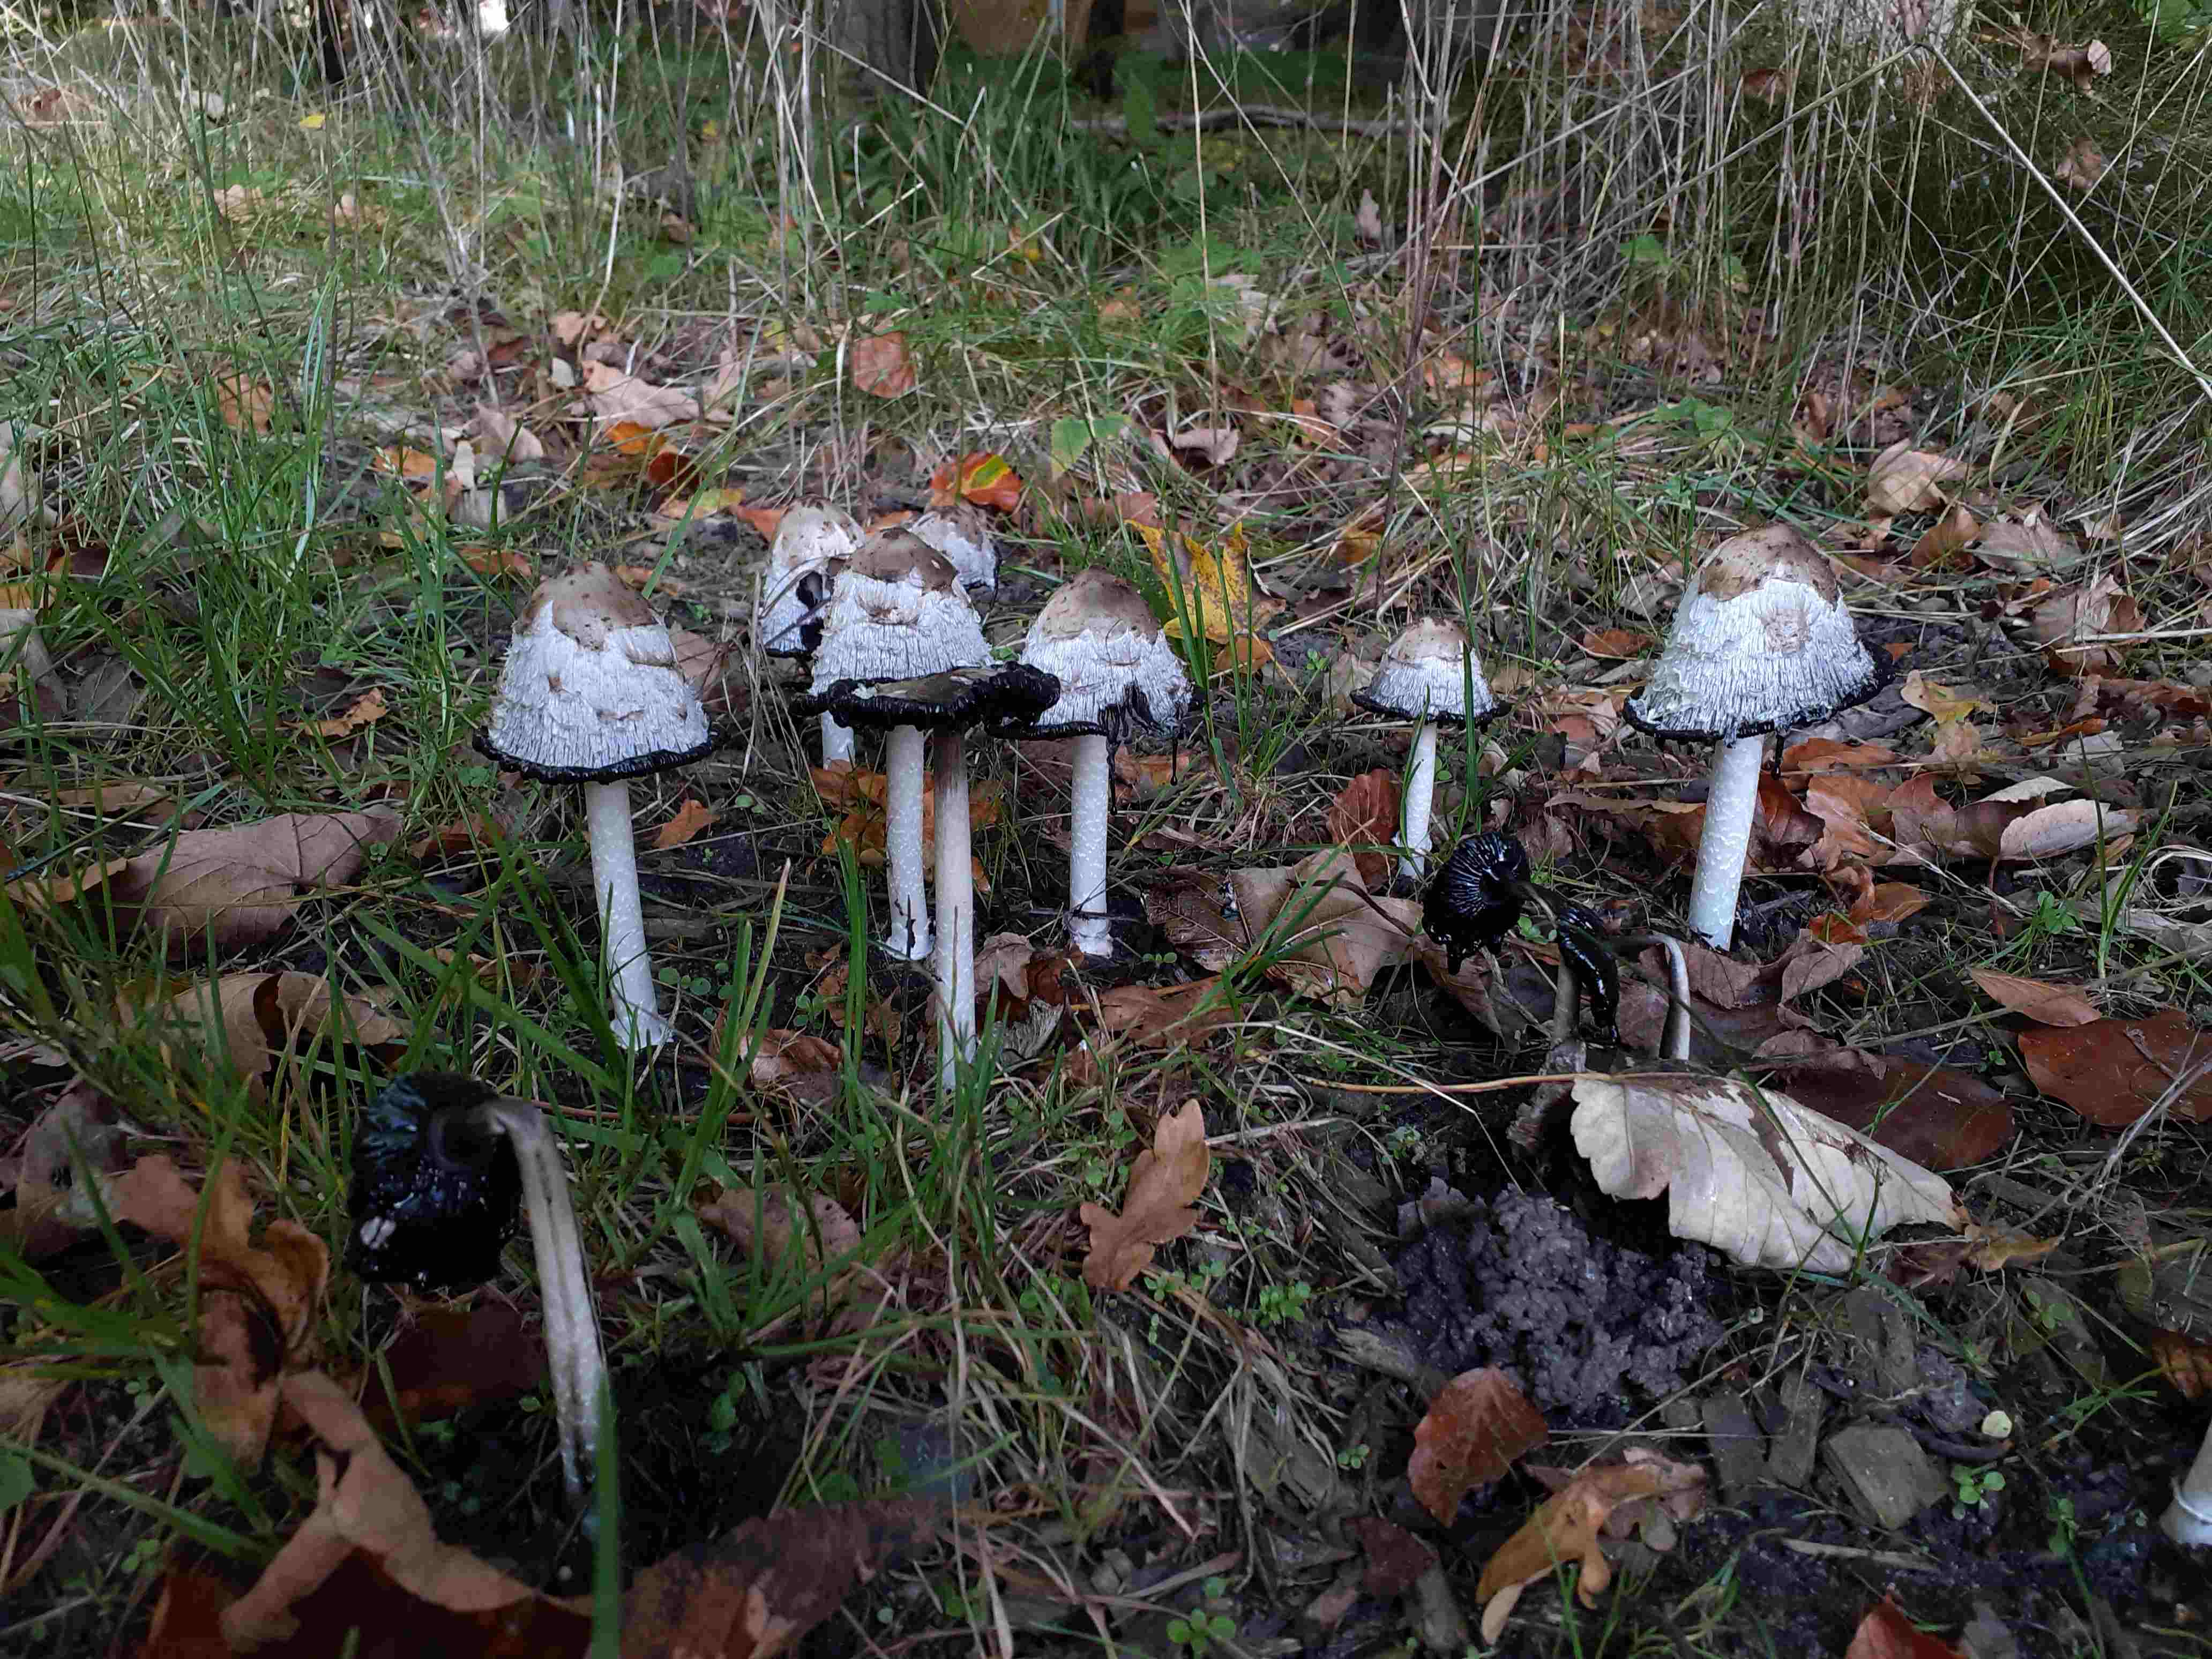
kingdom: Fungi
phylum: Basidiomycota
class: Agaricomycetes
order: Agaricales
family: Agaricaceae
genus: Coprinus
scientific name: Coprinus comatus
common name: stor parykhat
